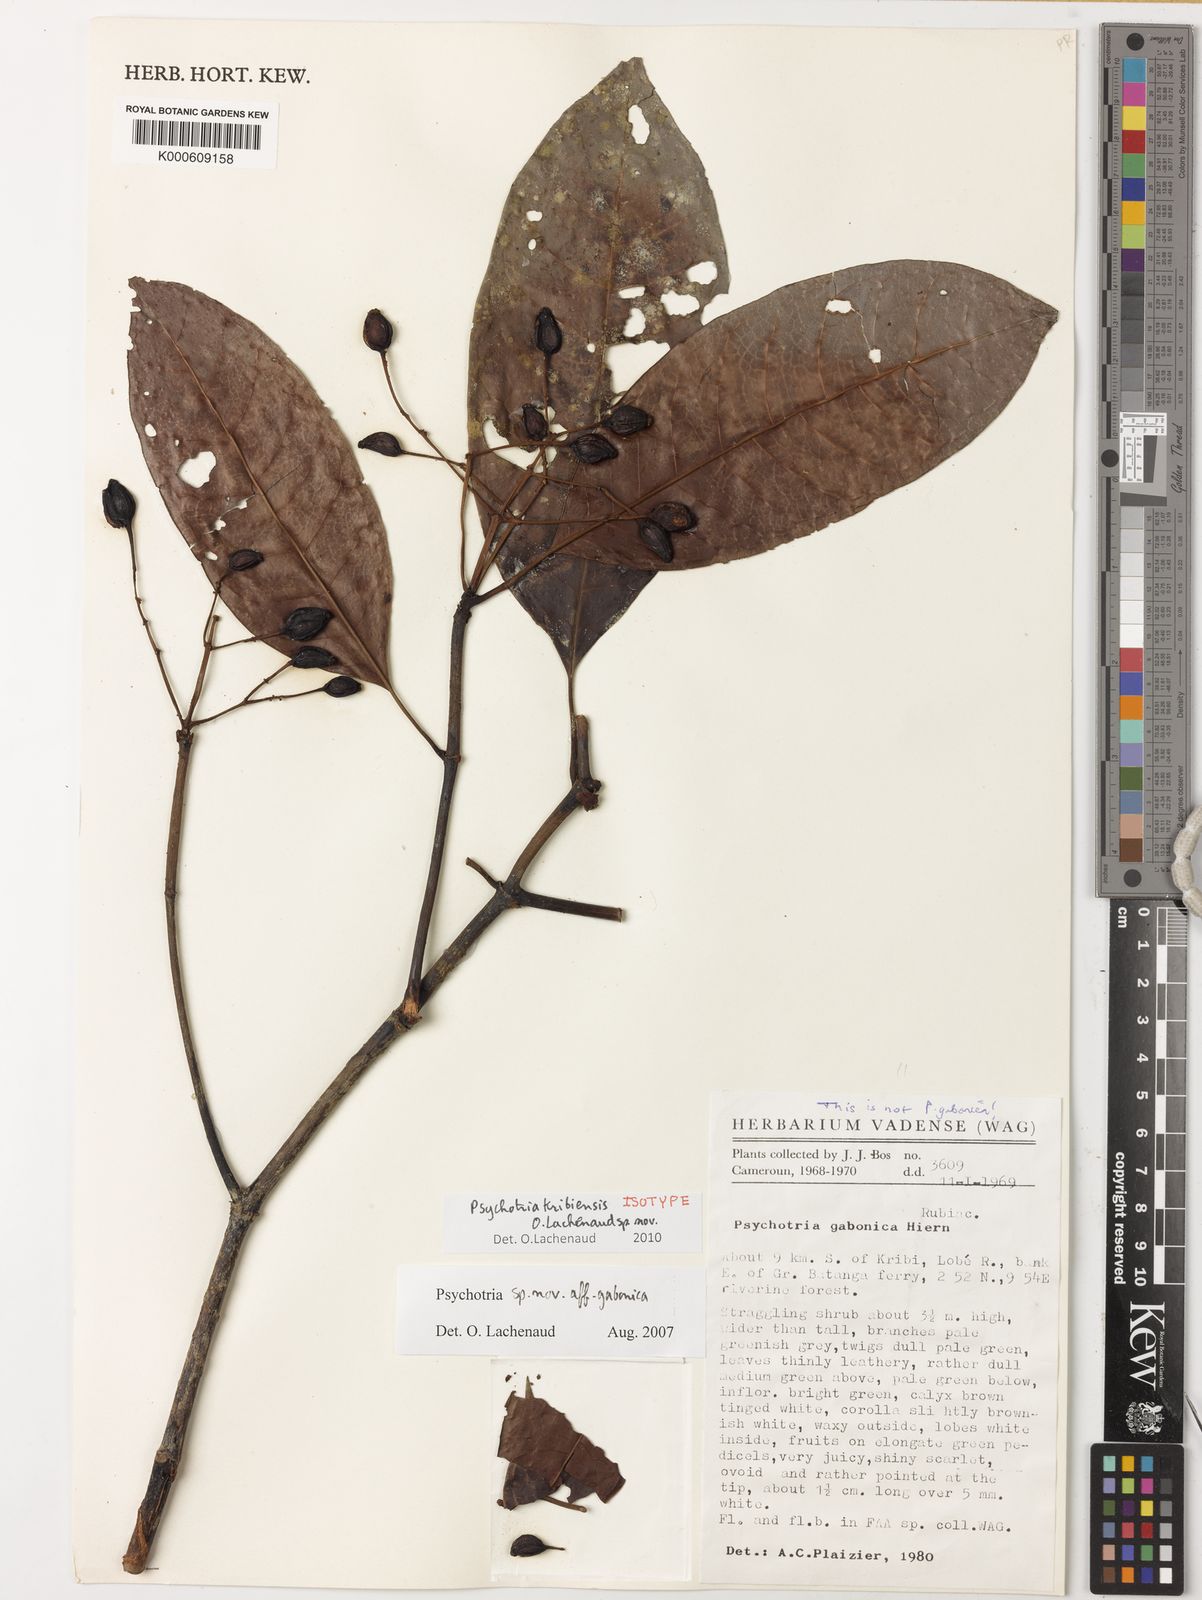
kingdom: Plantae
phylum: Tracheophyta
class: Magnoliopsida
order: Gentianales
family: Rubiaceae
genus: Psychotria
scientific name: Psychotria kribiensis
